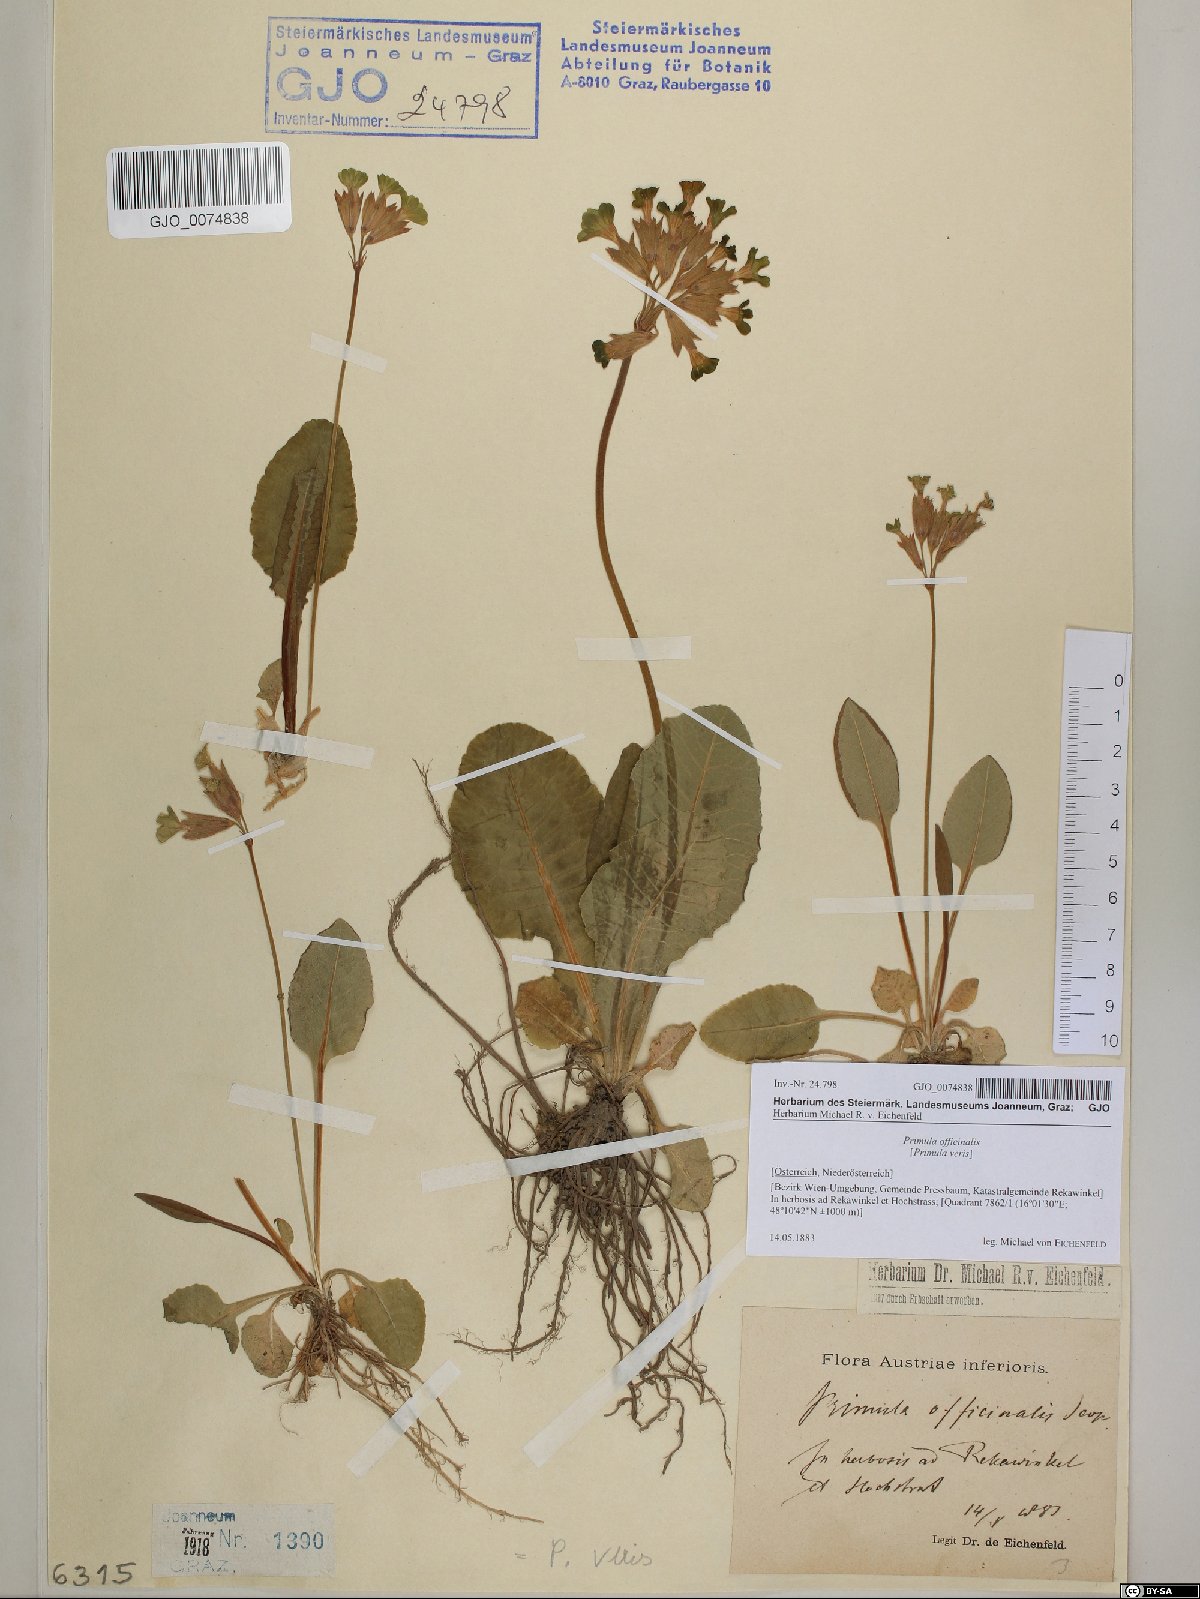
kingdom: Plantae
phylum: Tracheophyta
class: Magnoliopsida
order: Ericales
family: Primulaceae
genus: Primula
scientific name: Primula veris
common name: Cowslip
